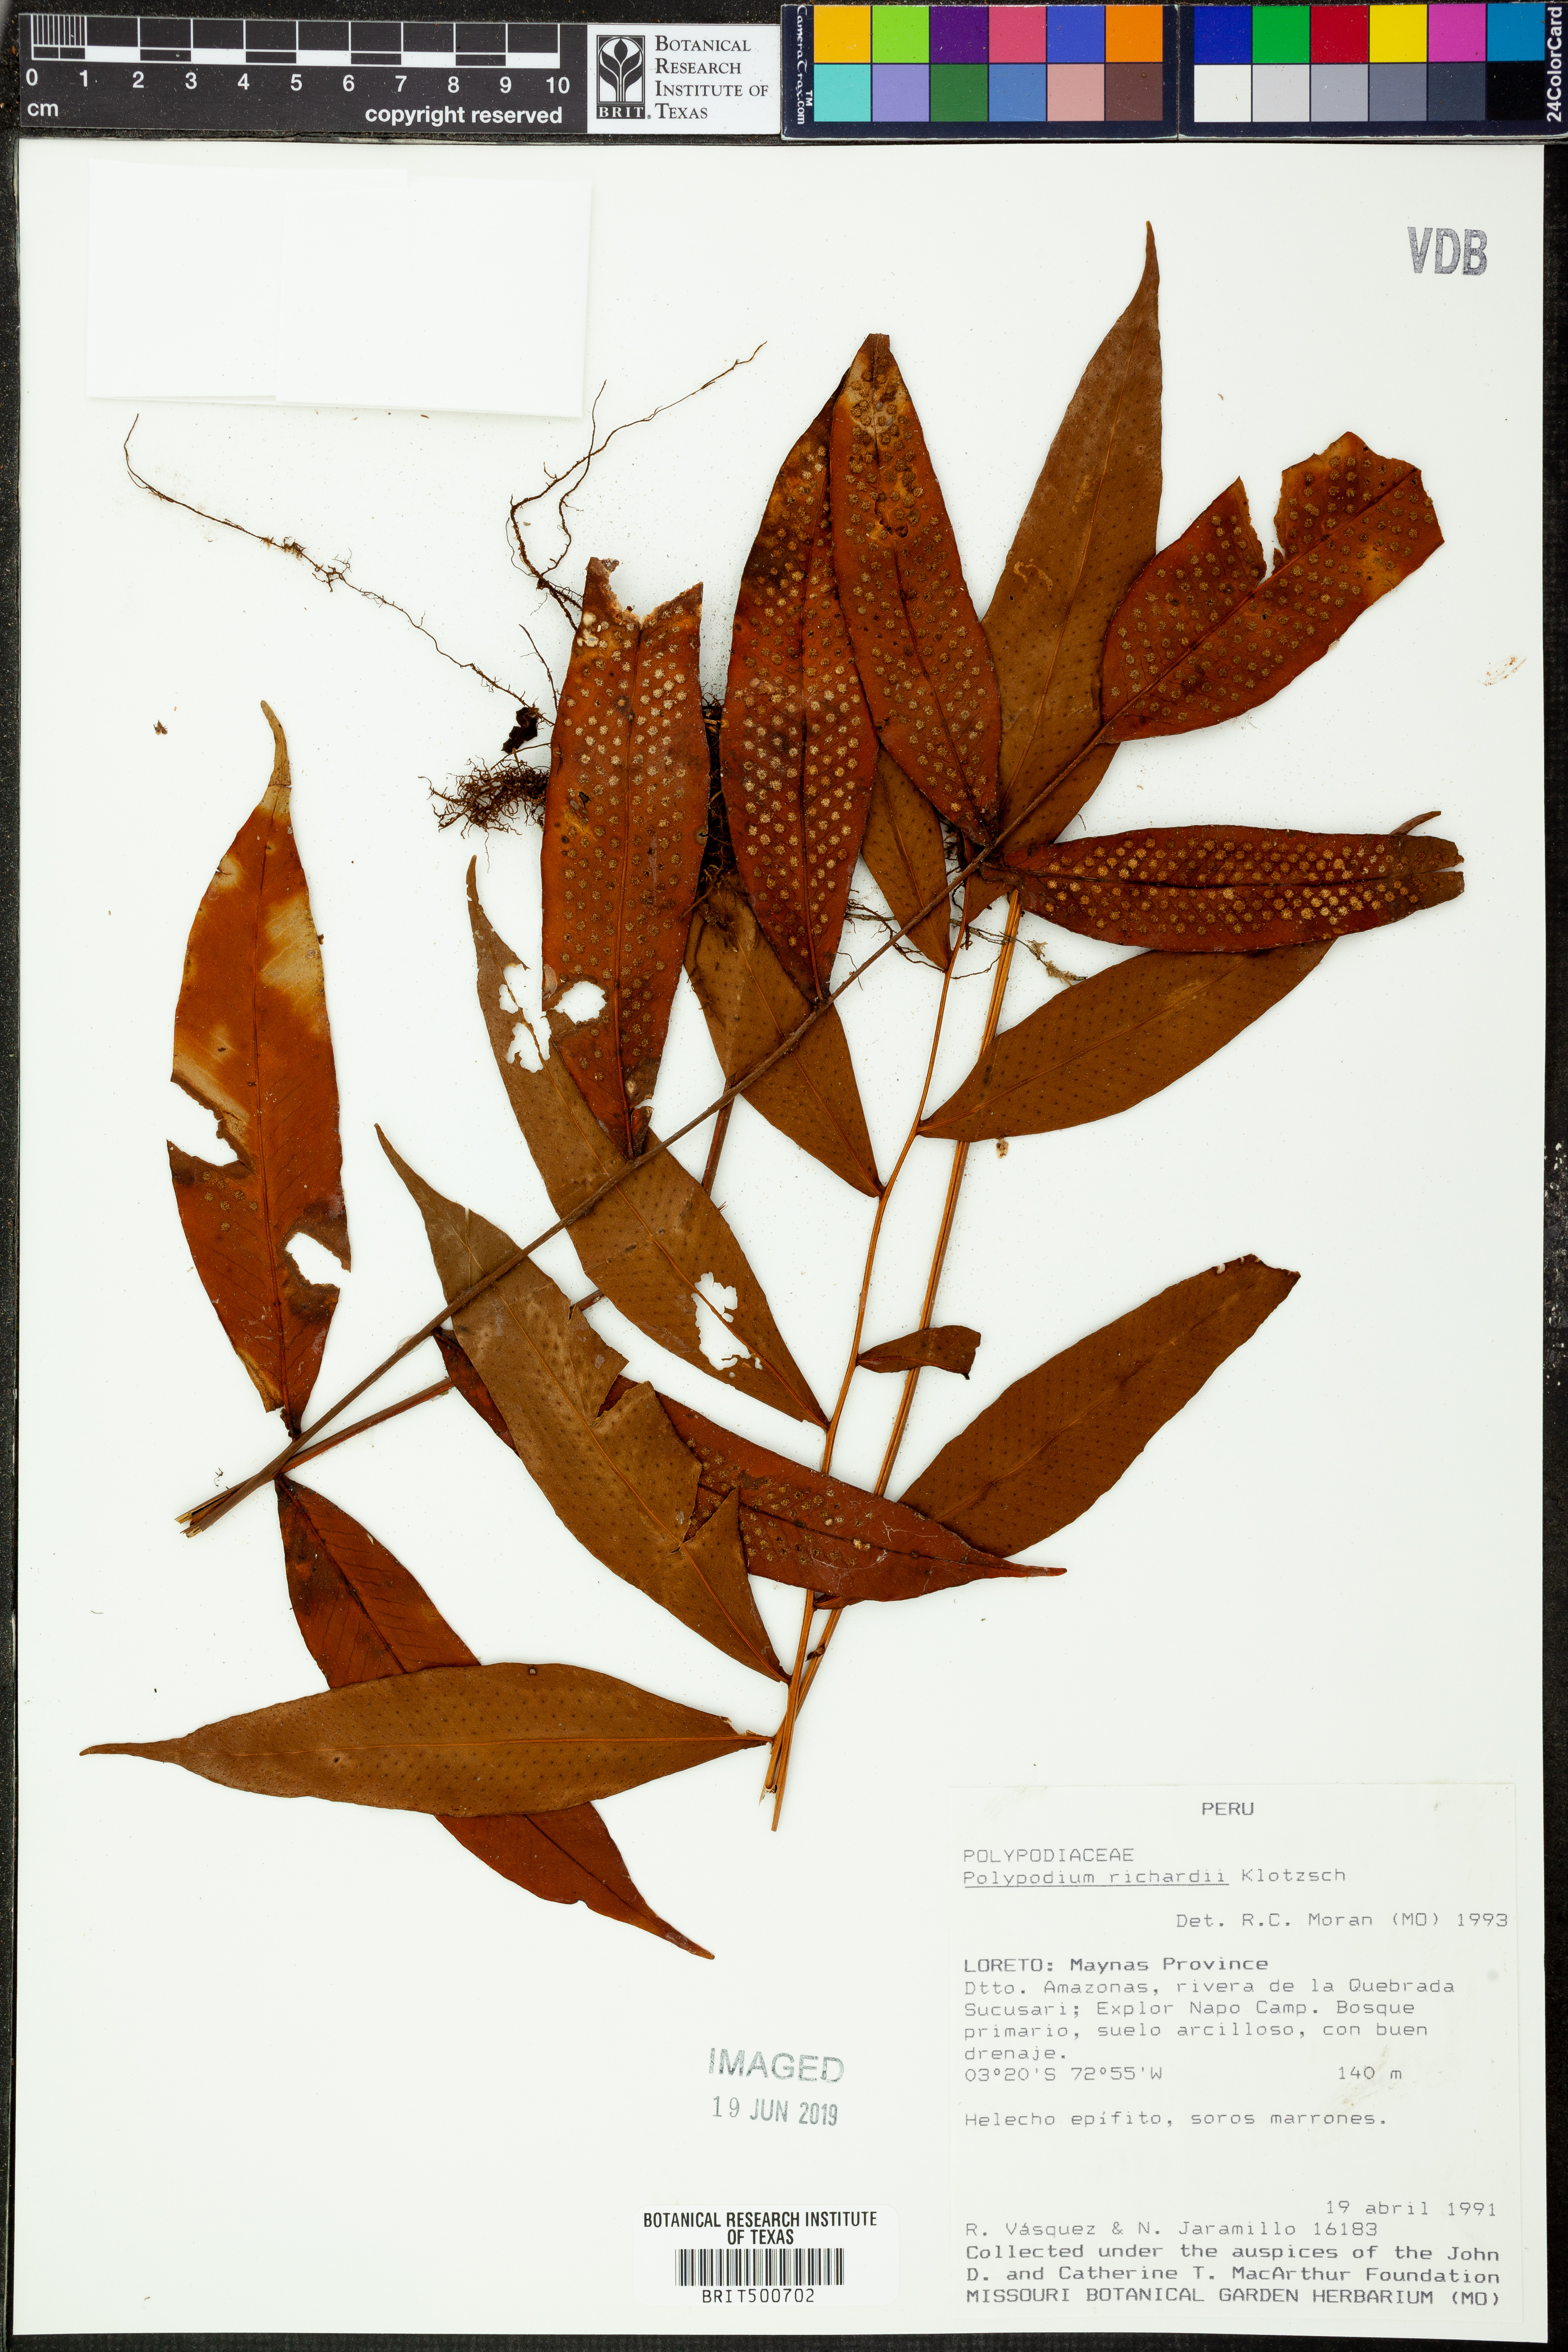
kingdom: Plantae
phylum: Tracheophyta
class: Polypodiopsida
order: Polypodiales
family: Polypodiaceae
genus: Serpocaulon
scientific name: Serpocaulon richardii
